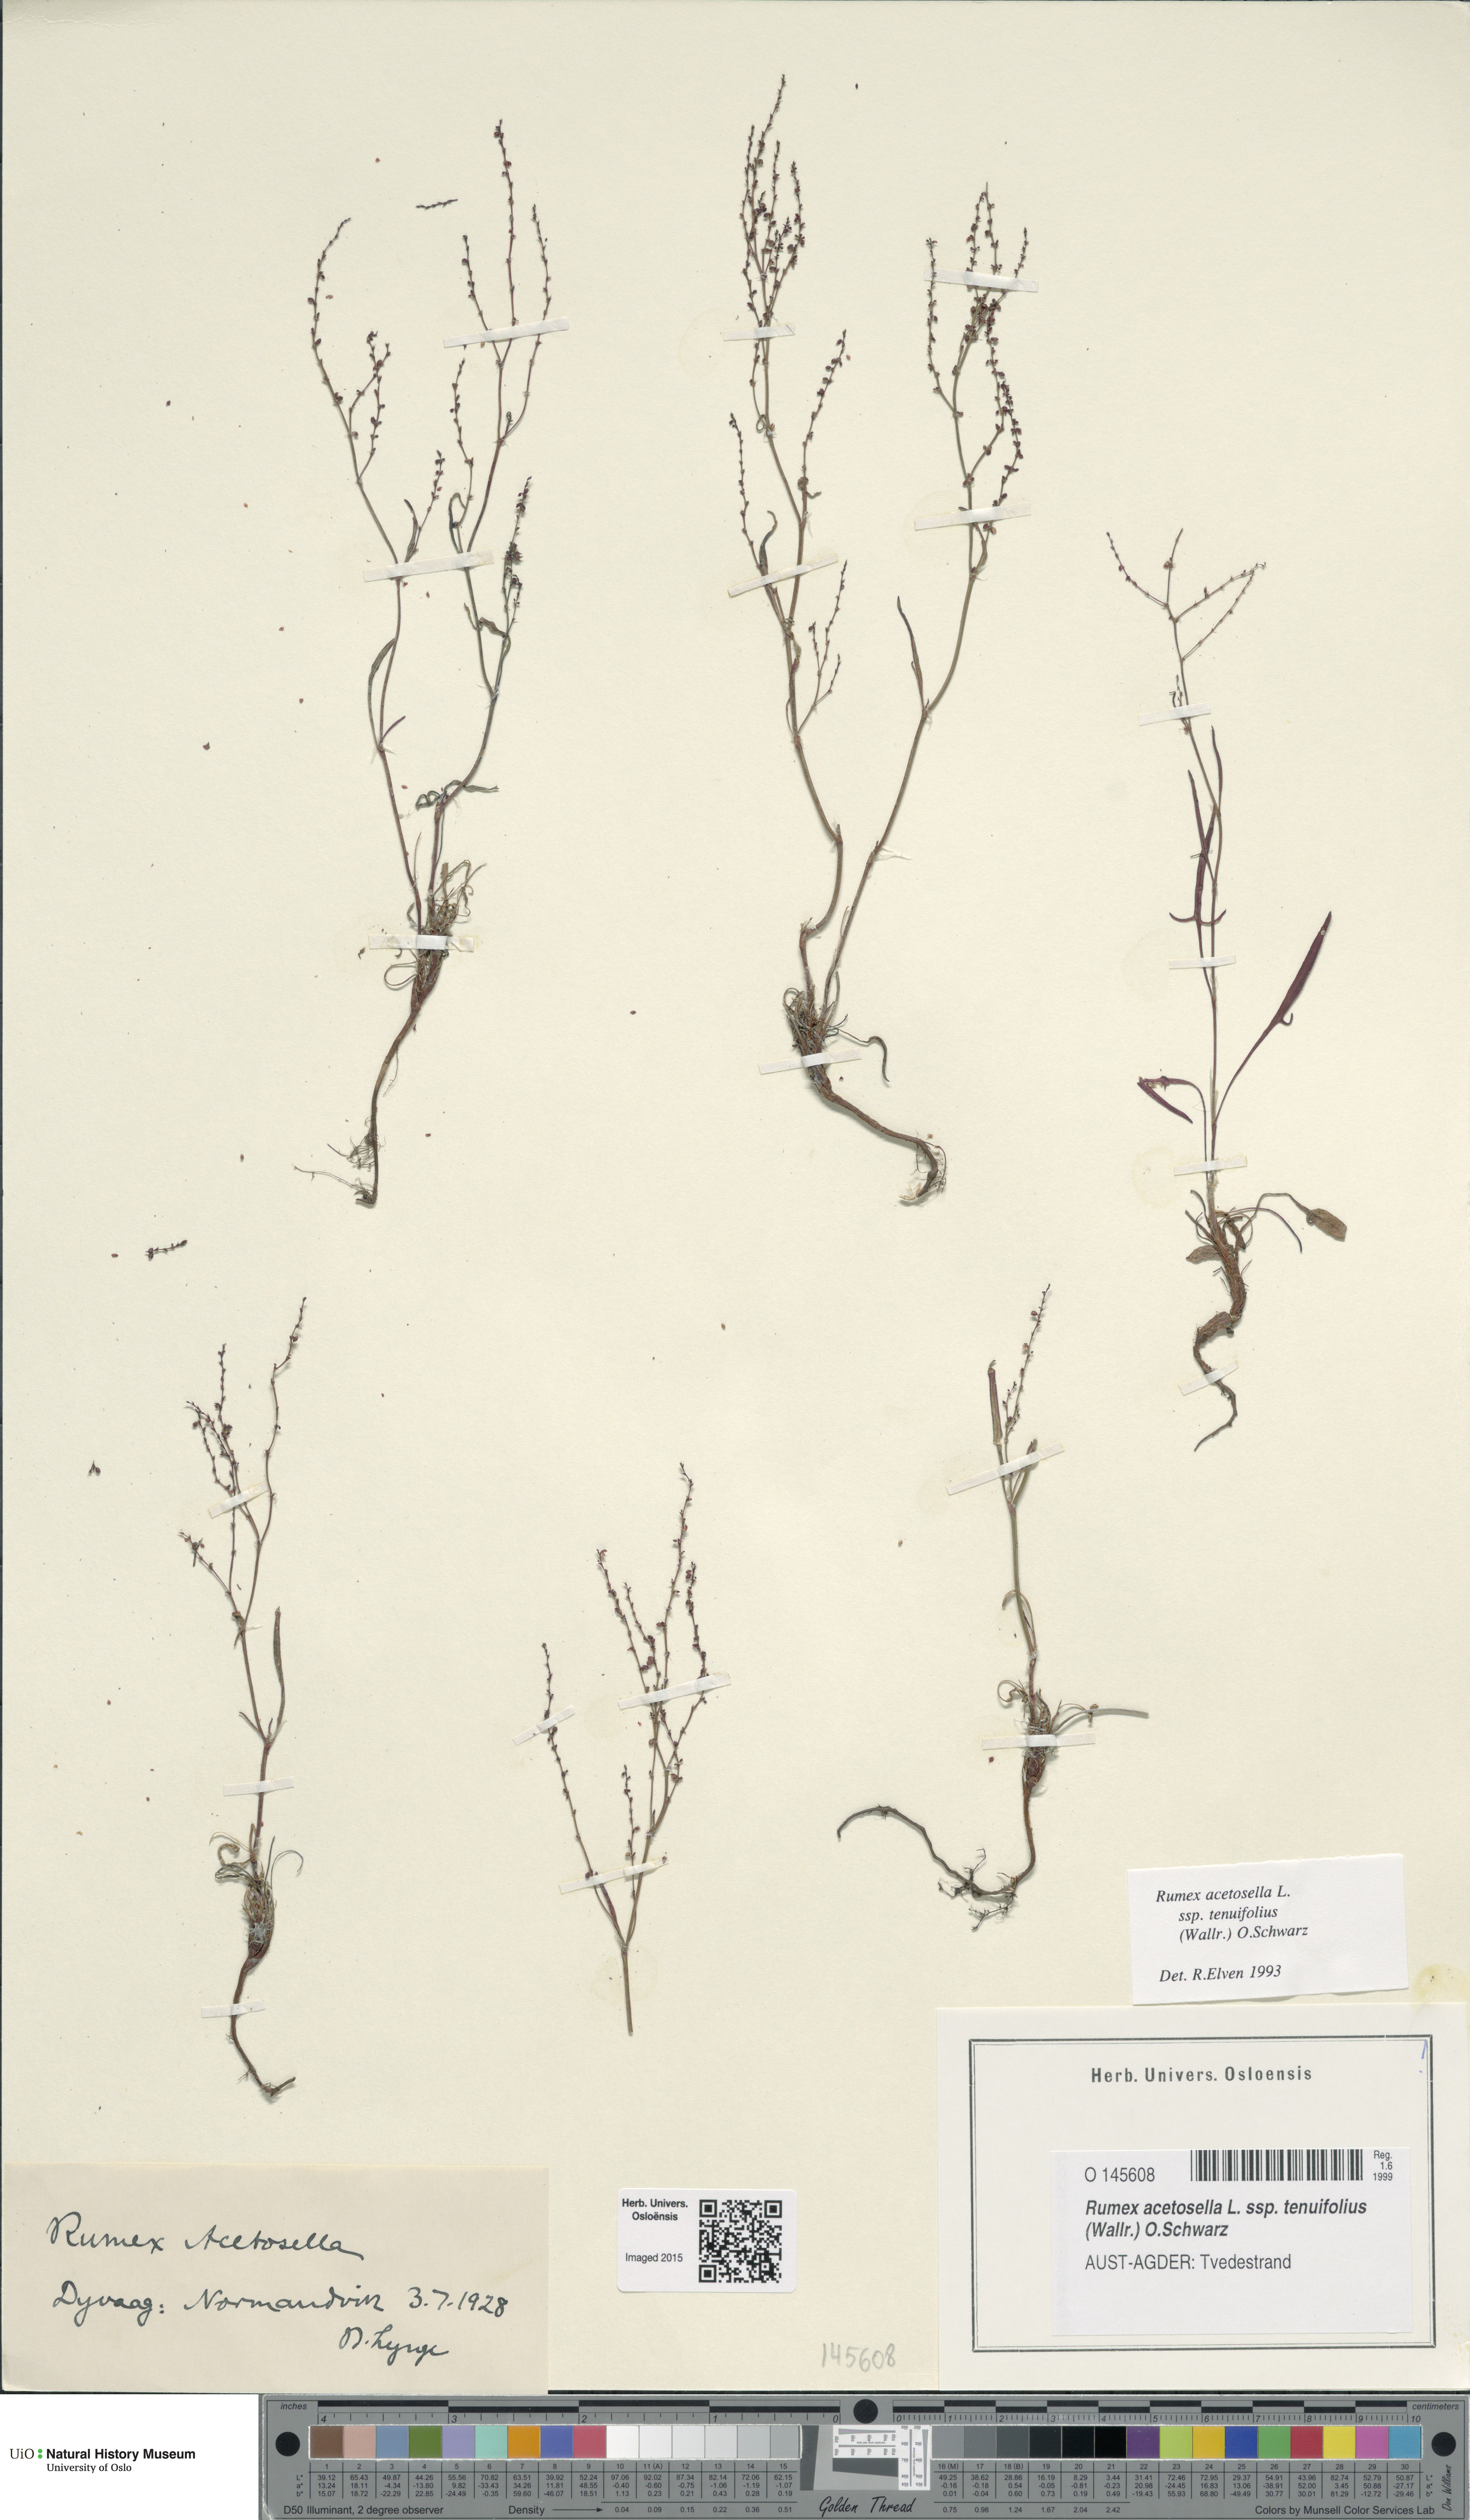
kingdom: Plantae
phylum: Tracheophyta
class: Magnoliopsida
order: Caryophyllales
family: Polygonaceae
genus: Rumex
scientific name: Rumex acetosella
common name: Common sheep sorrel
